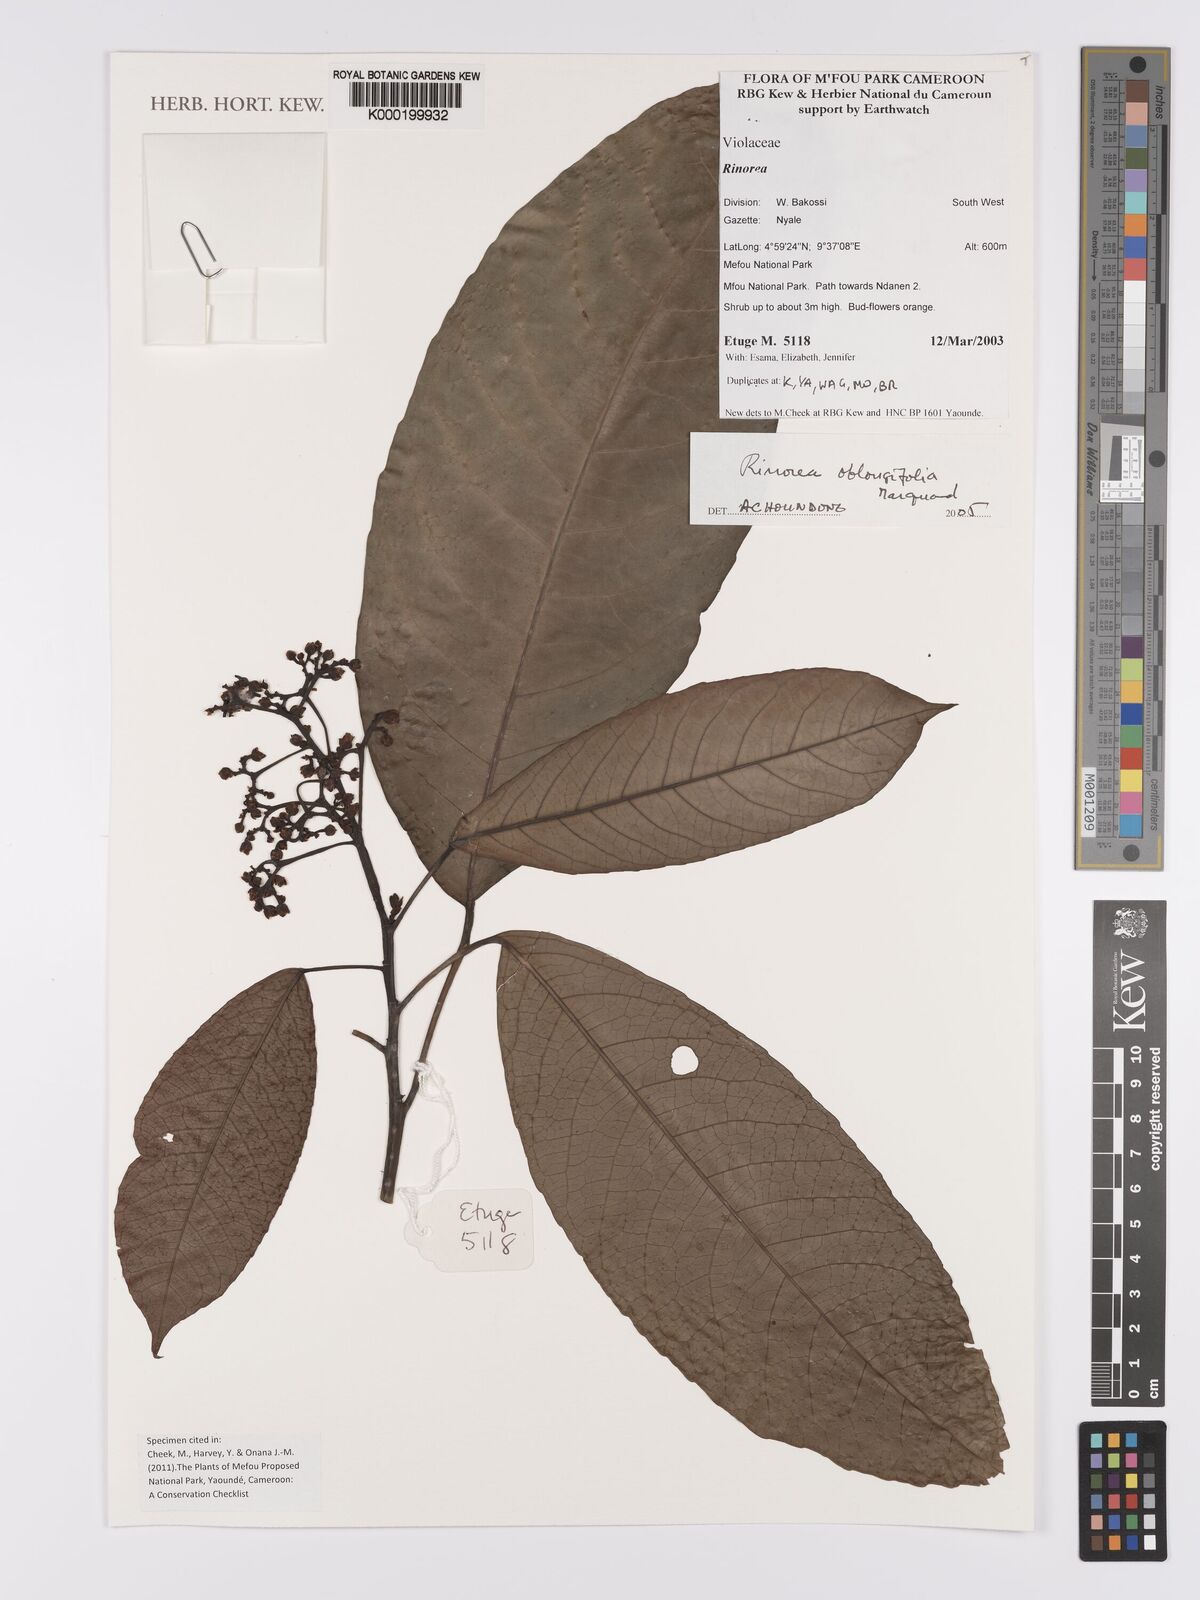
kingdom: Plantae
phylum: Tracheophyta
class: Magnoliopsida
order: Apiales
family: Pittosporaceae
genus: Marianthus
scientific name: Marianthus coeruleopunctatus
